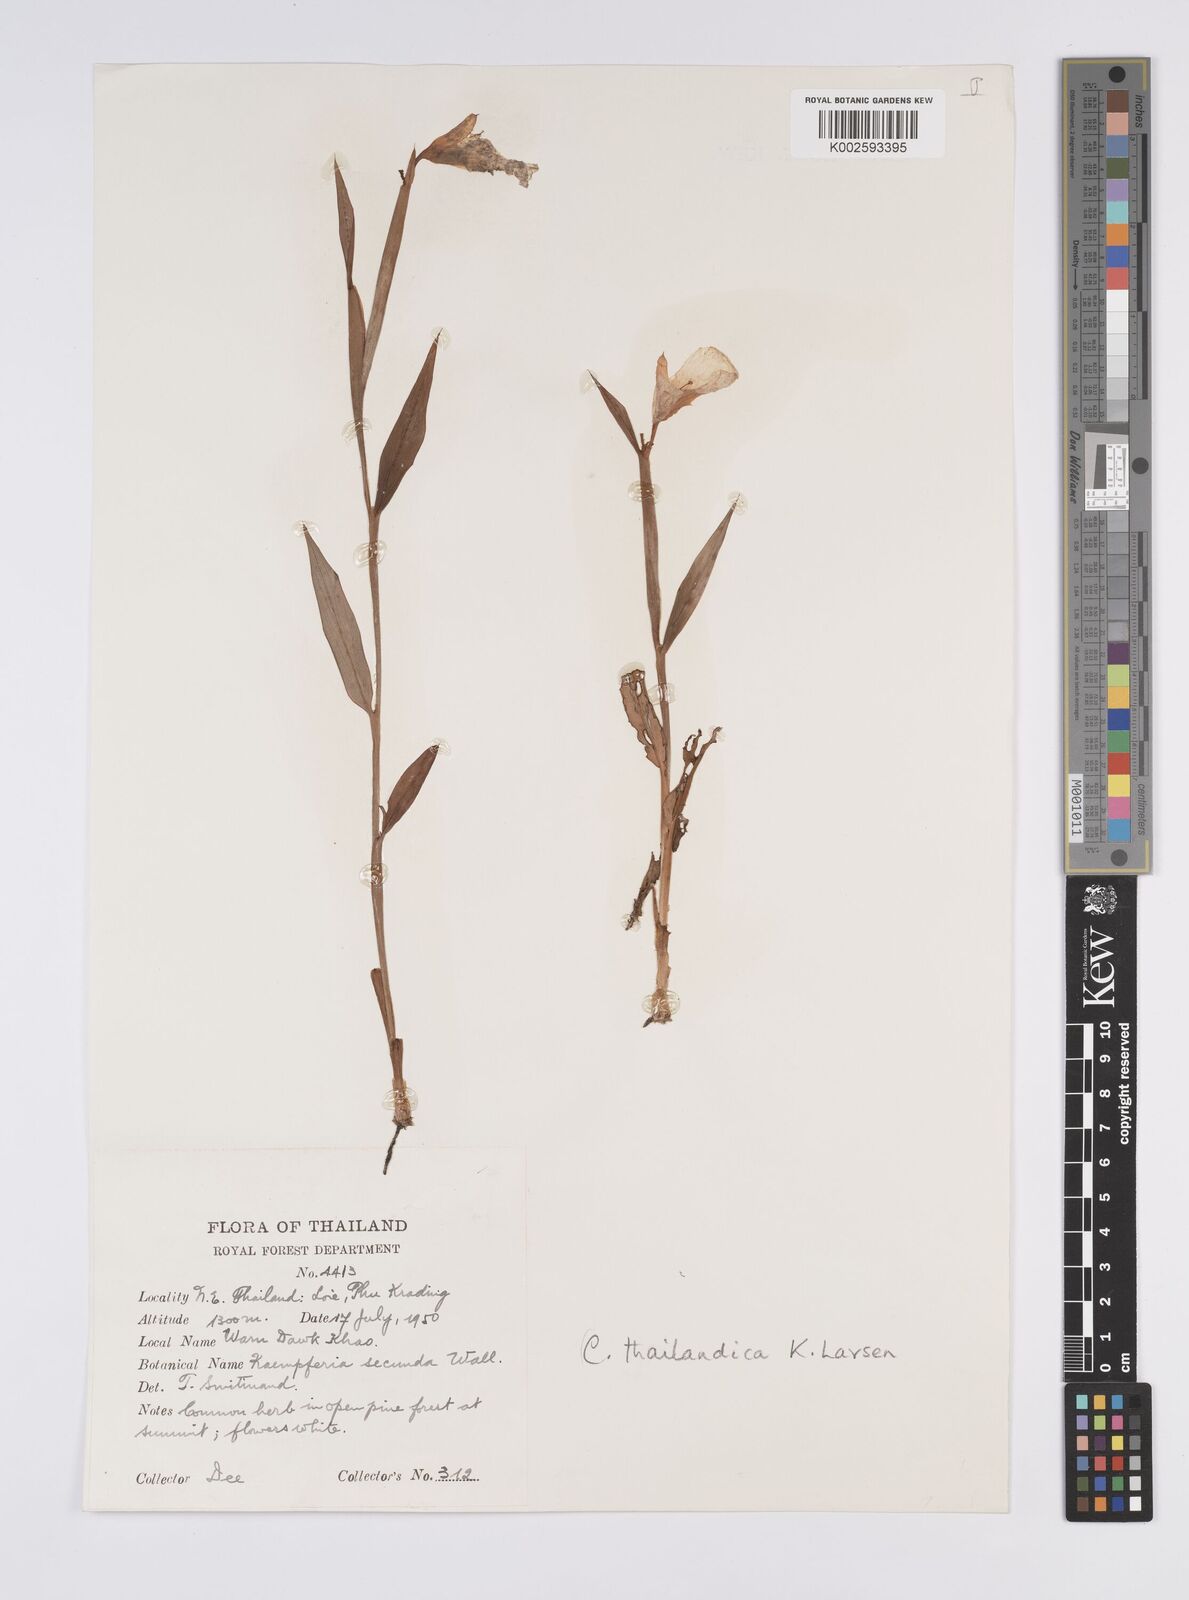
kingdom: Plantae
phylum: Tracheophyta
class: Liliopsida
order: Zingiberales
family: Zingiberaceae
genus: Boesenbergia
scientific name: Boesenbergia thailandica
